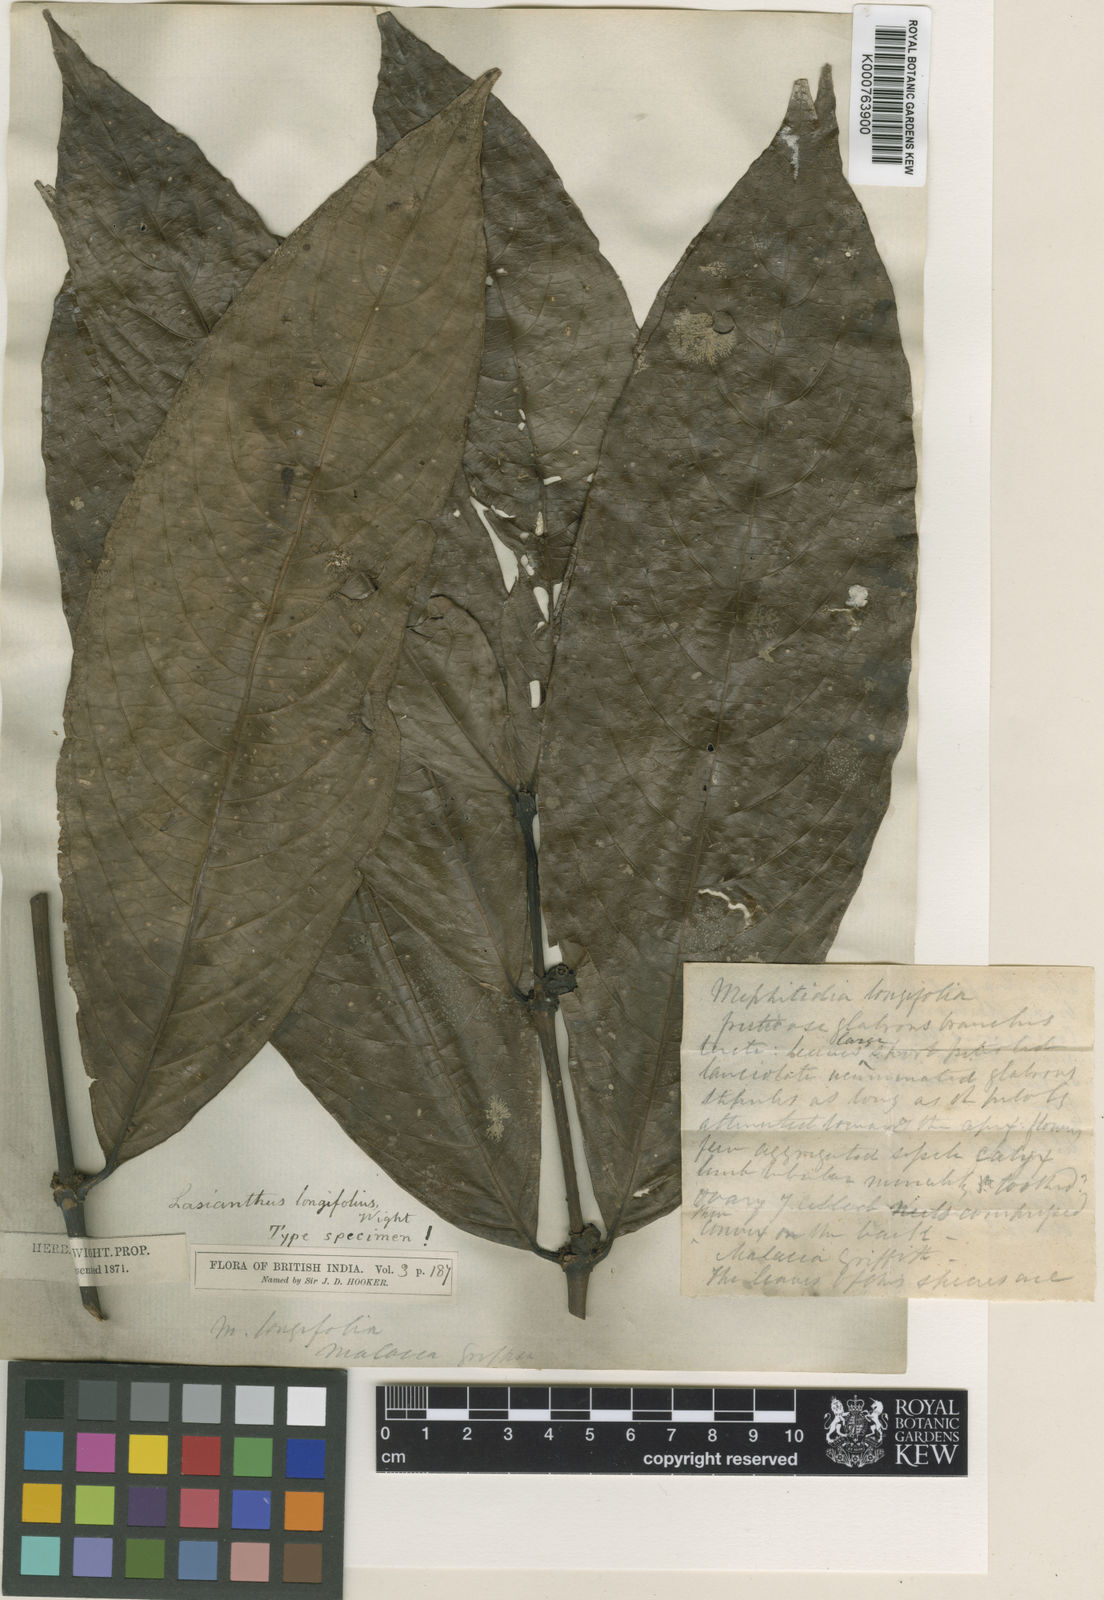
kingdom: Plantae
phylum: Tracheophyta
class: Magnoliopsida
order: Gentianales
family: Rubiaceae
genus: Lasianthus
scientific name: Lasianthus longifolius
